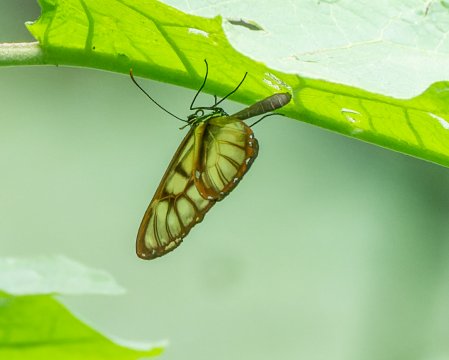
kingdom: Animalia
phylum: Arthropoda
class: Insecta
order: Lepidoptera
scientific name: Lepidoptera
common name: Butterflies
